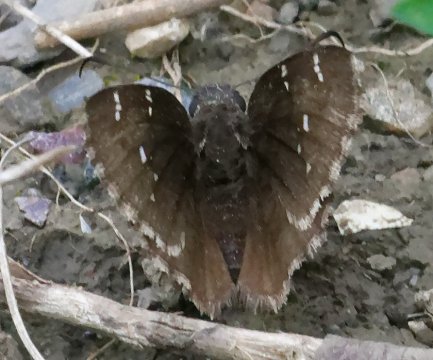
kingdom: Animalia
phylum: Arthropoda
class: Insecta
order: Lepidoptera
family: Hesperiidae
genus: Autochton
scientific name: Autochton
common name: Northern Cloudywing
